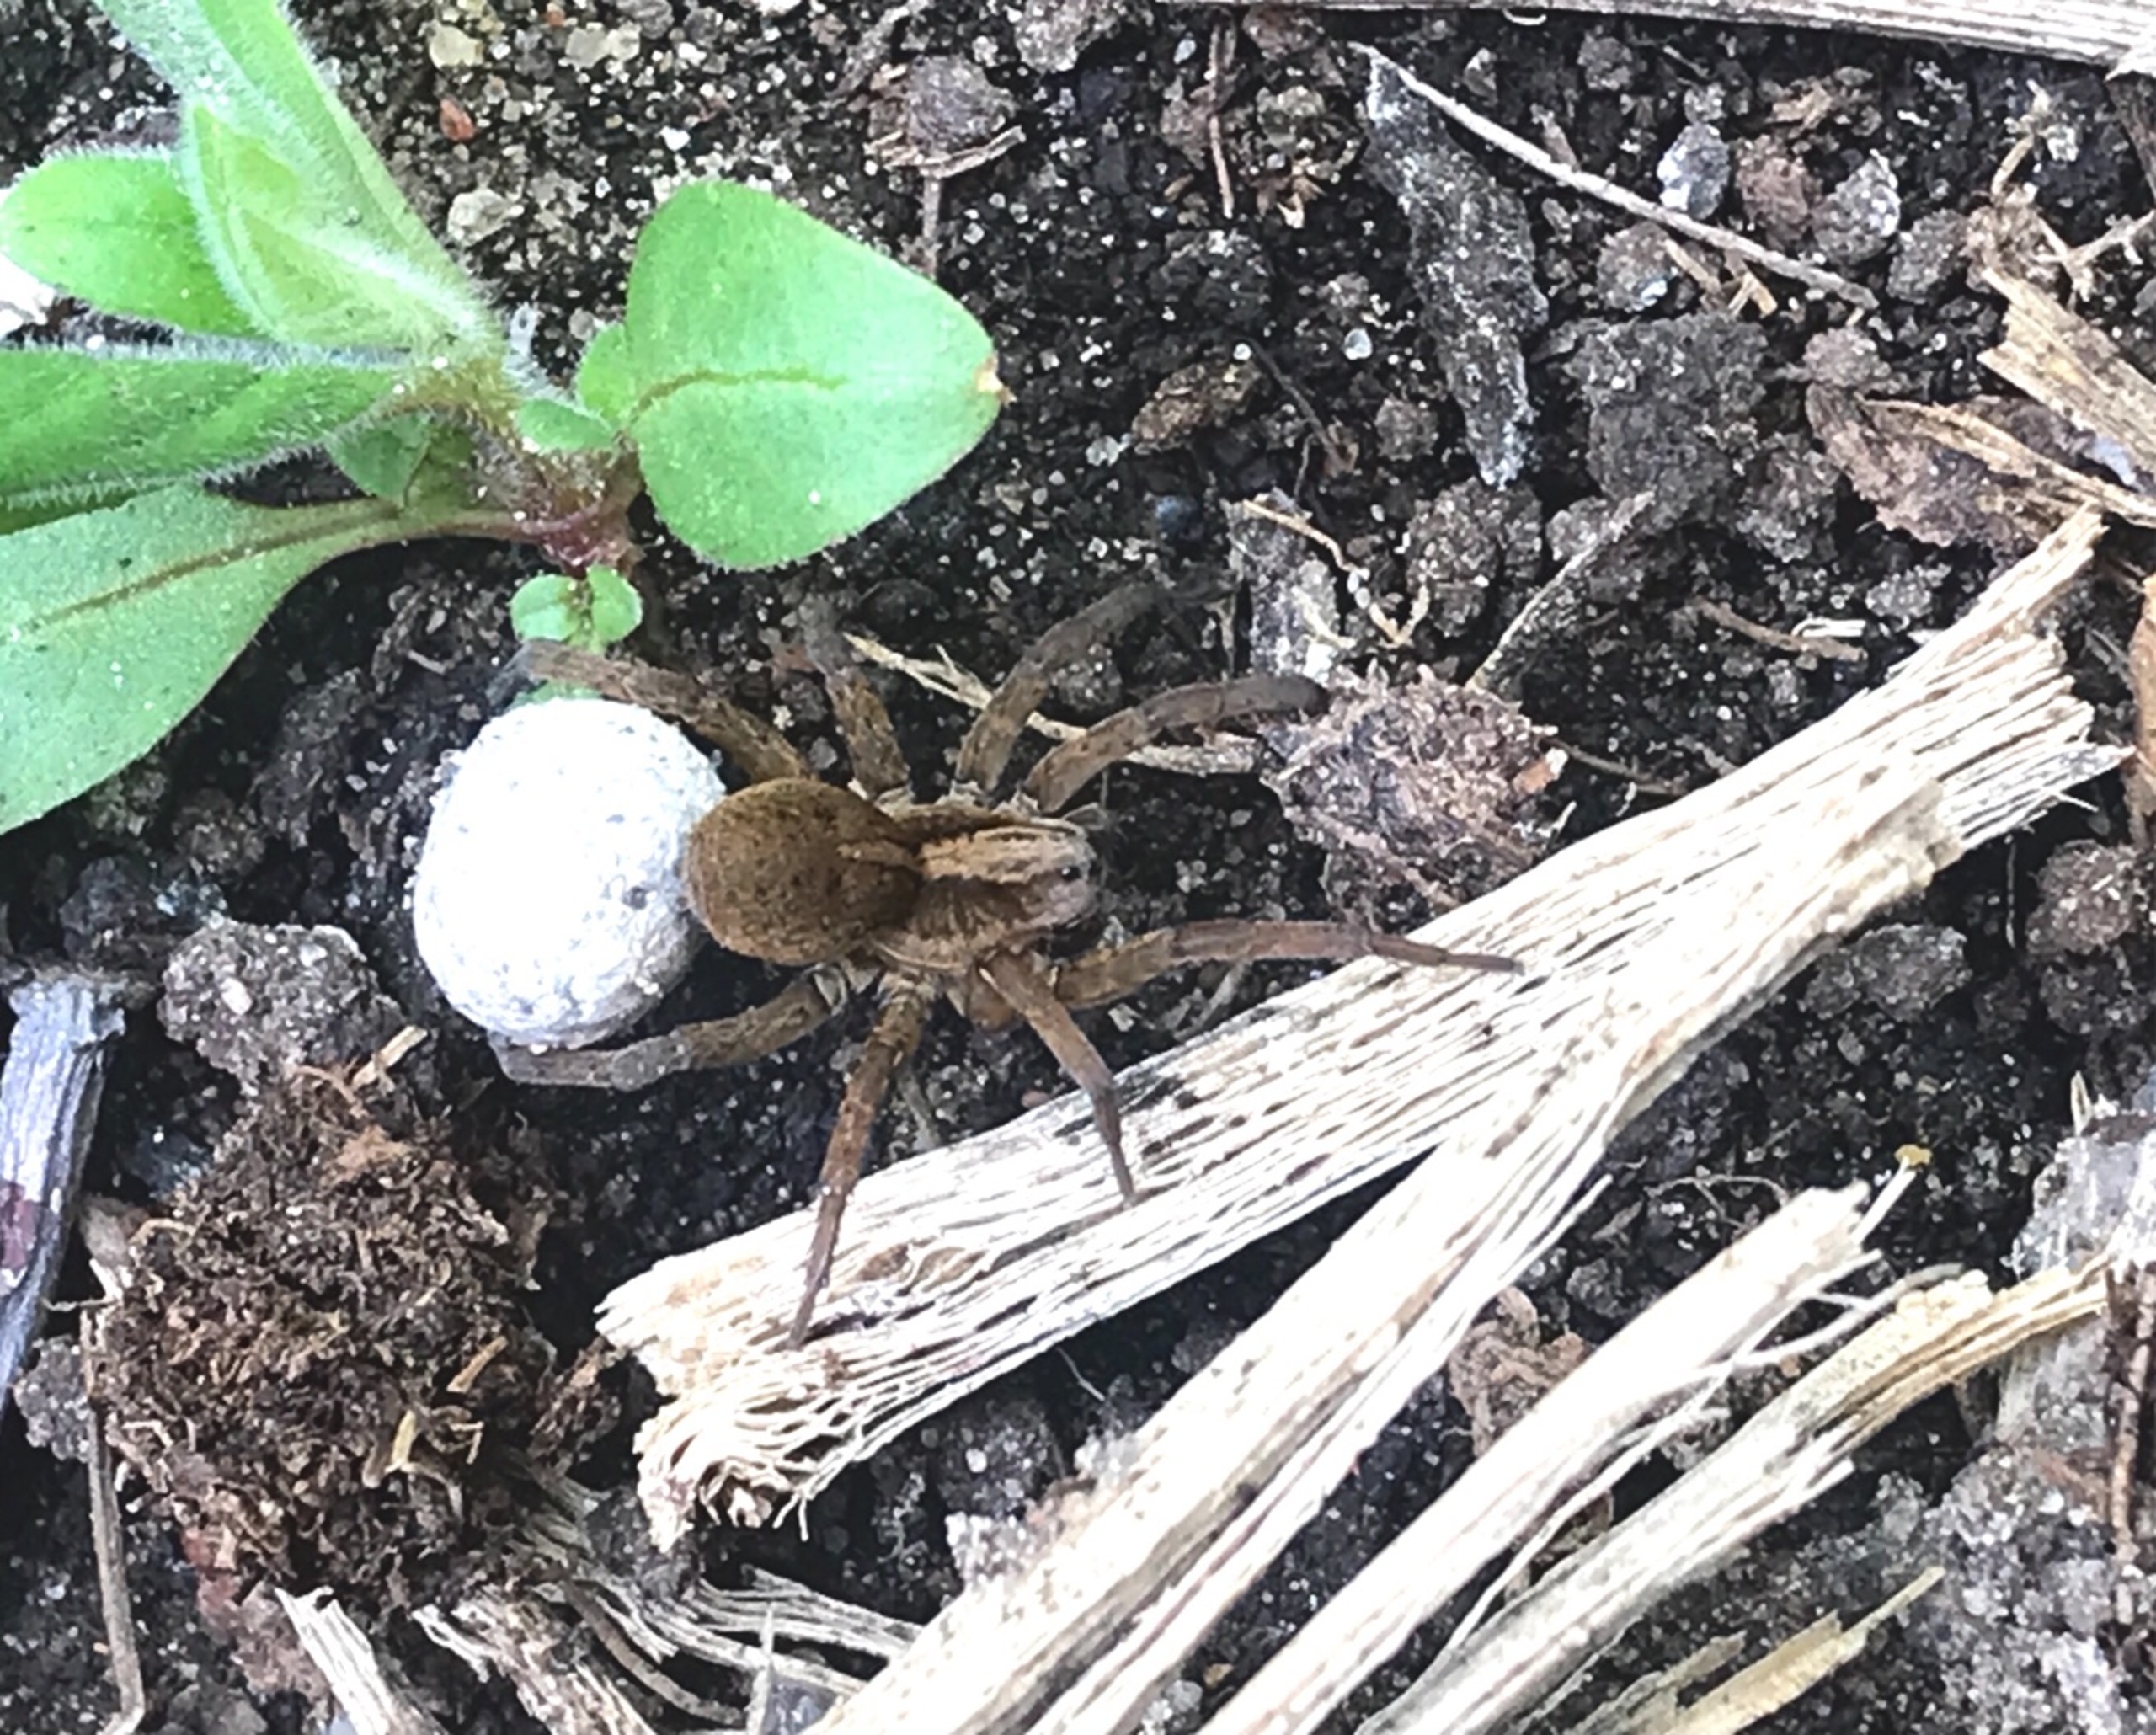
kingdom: Animalia
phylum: Arthropoda
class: Arachnida
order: Araneae
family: Lycosidae
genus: Trochosa
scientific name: Trochosa ruricola
